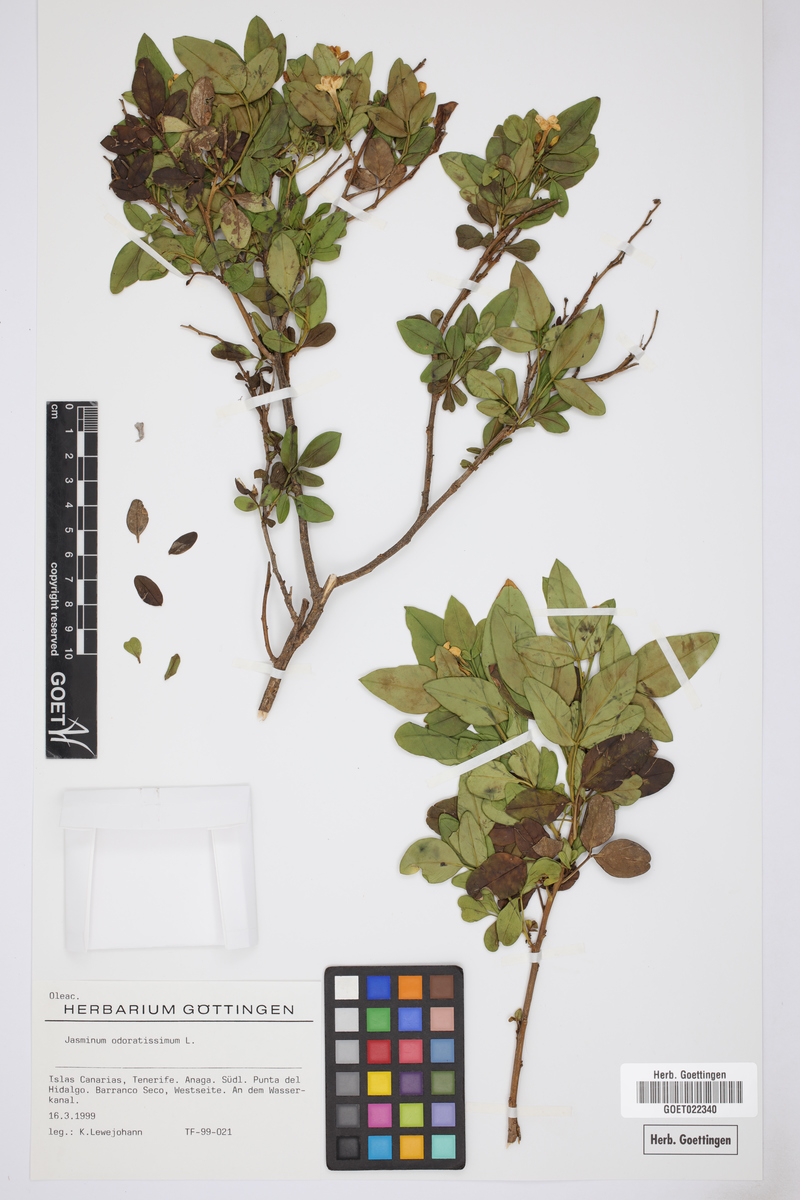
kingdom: Plantae
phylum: Tracheophyta
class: Magnoliopsida
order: Lamiales
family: Oleaceae
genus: Chrysojasminum
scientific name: Chrysojasminum odoratissimum
